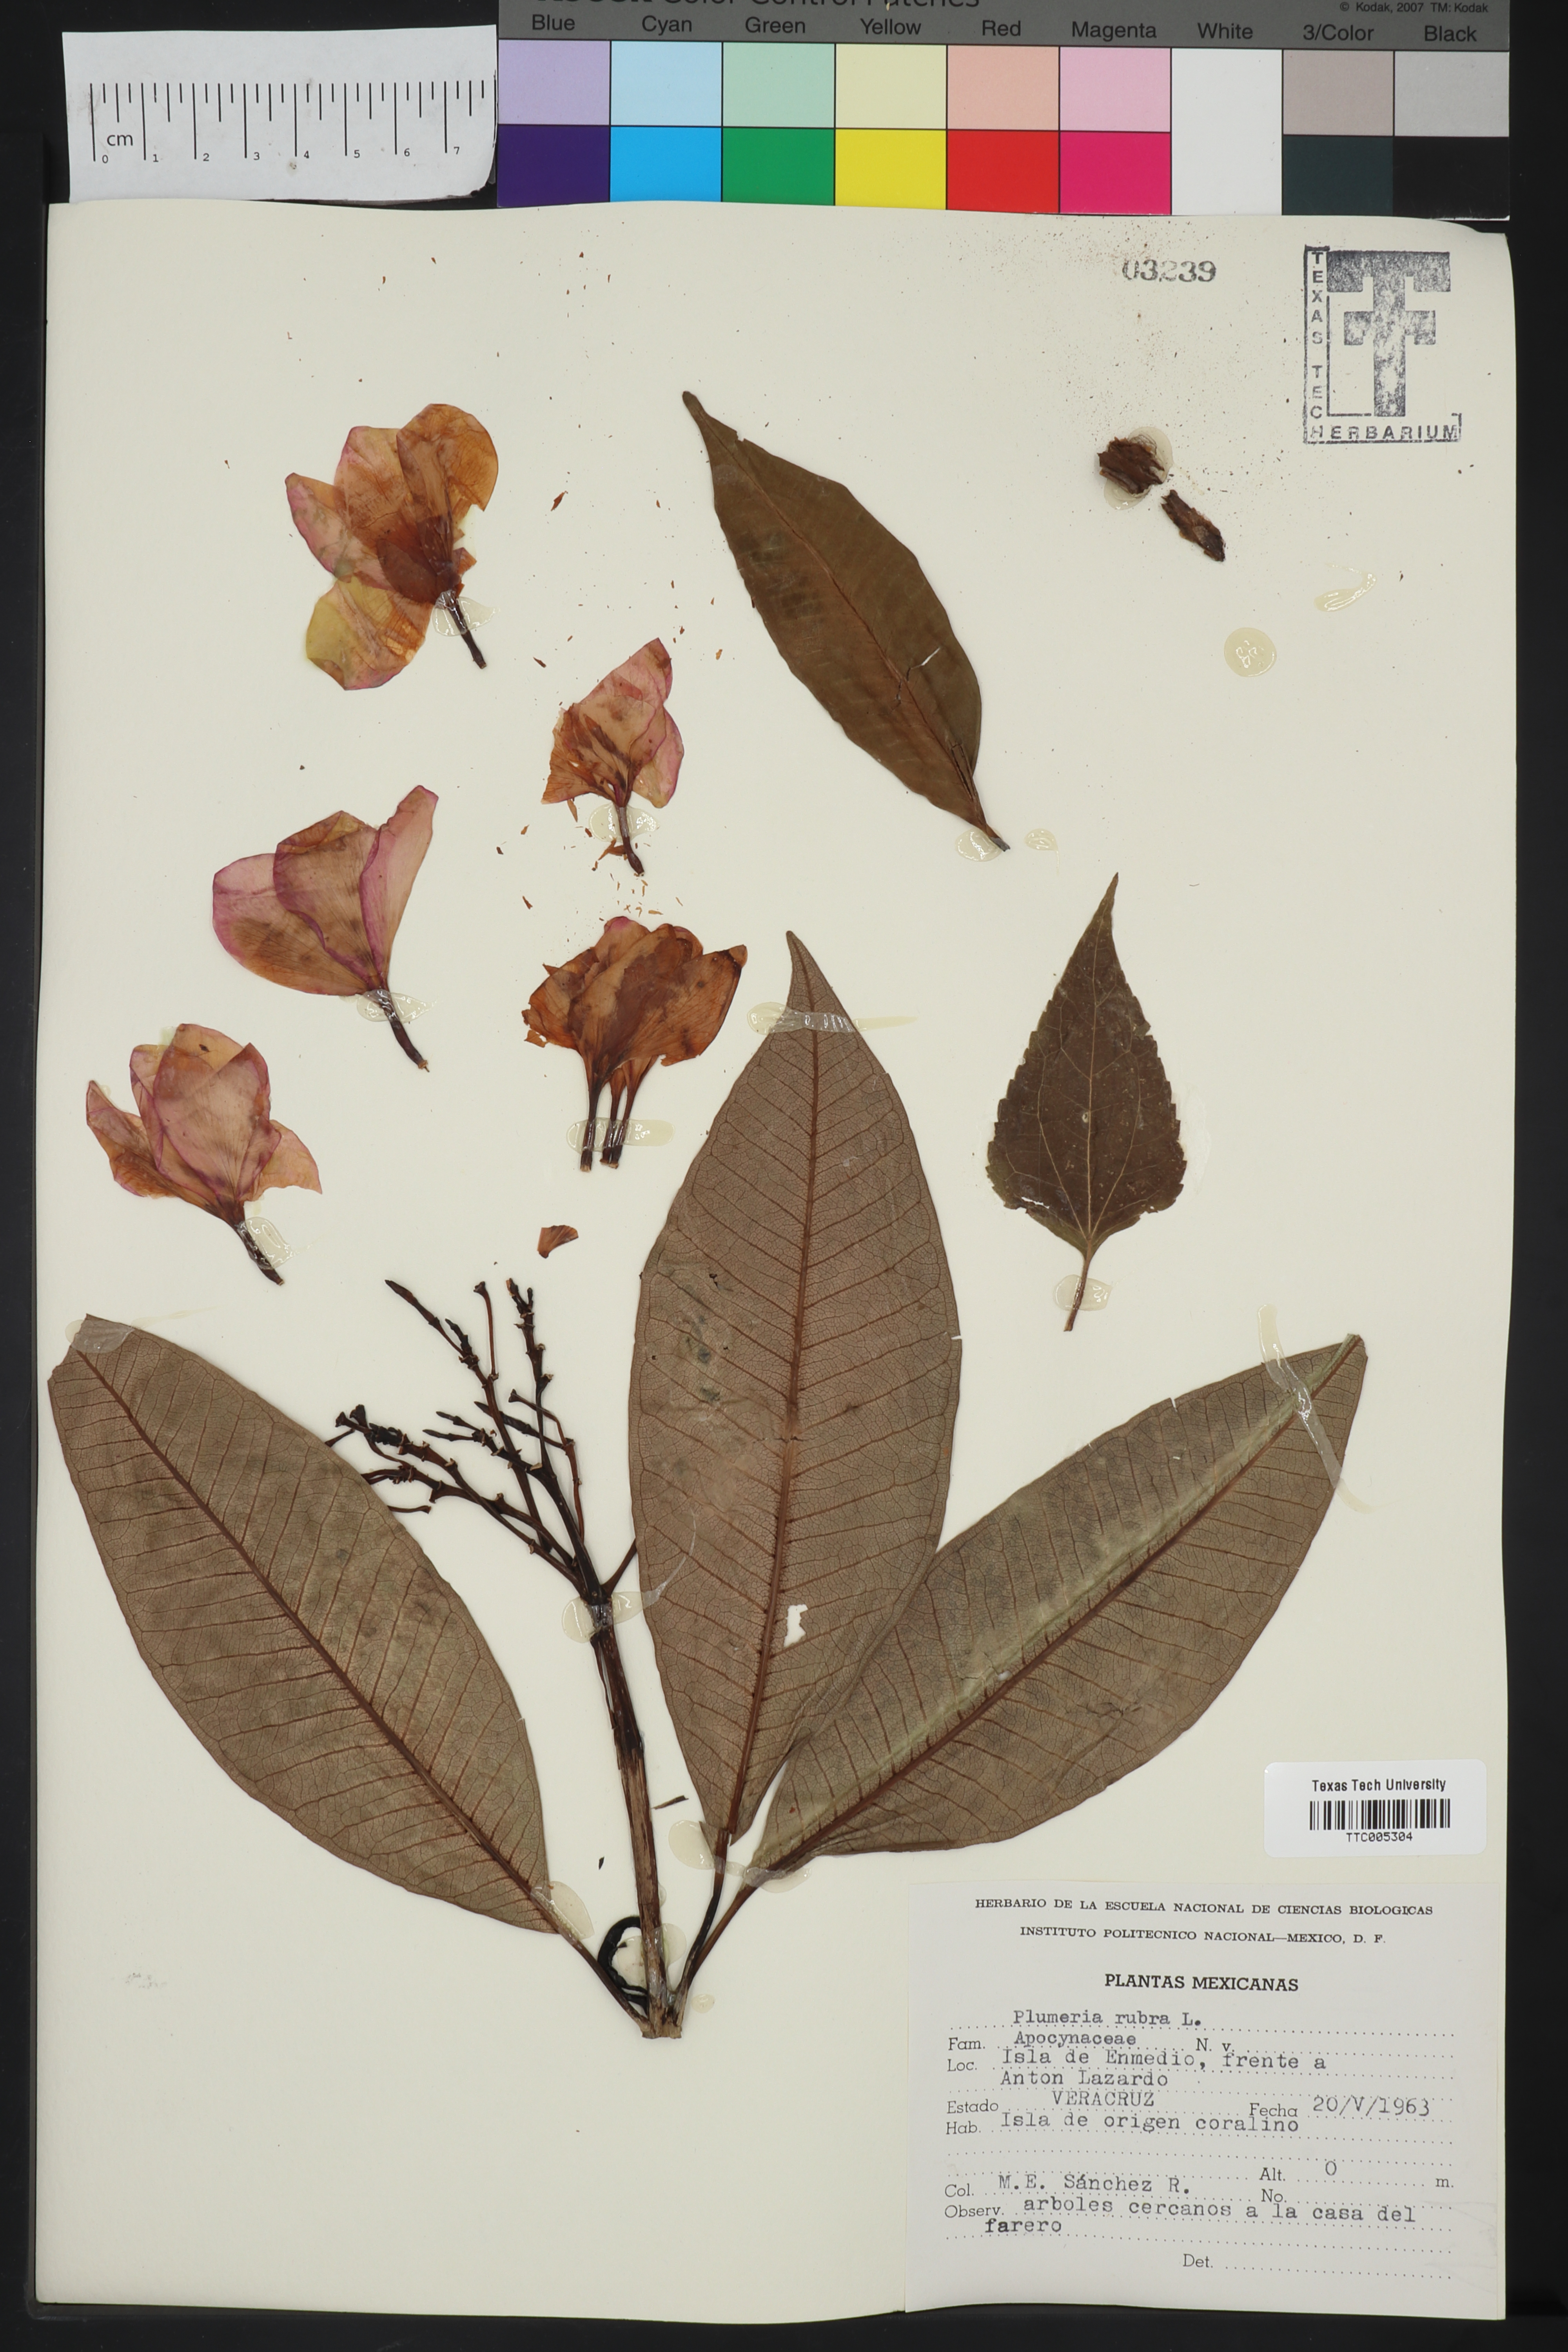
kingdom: Plantae
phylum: Tracheophyta
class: Magnoliopsida
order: Gentianales
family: Apocynaceae
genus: Plumeria
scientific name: Plumeria rubra
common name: Pagoda-tree
